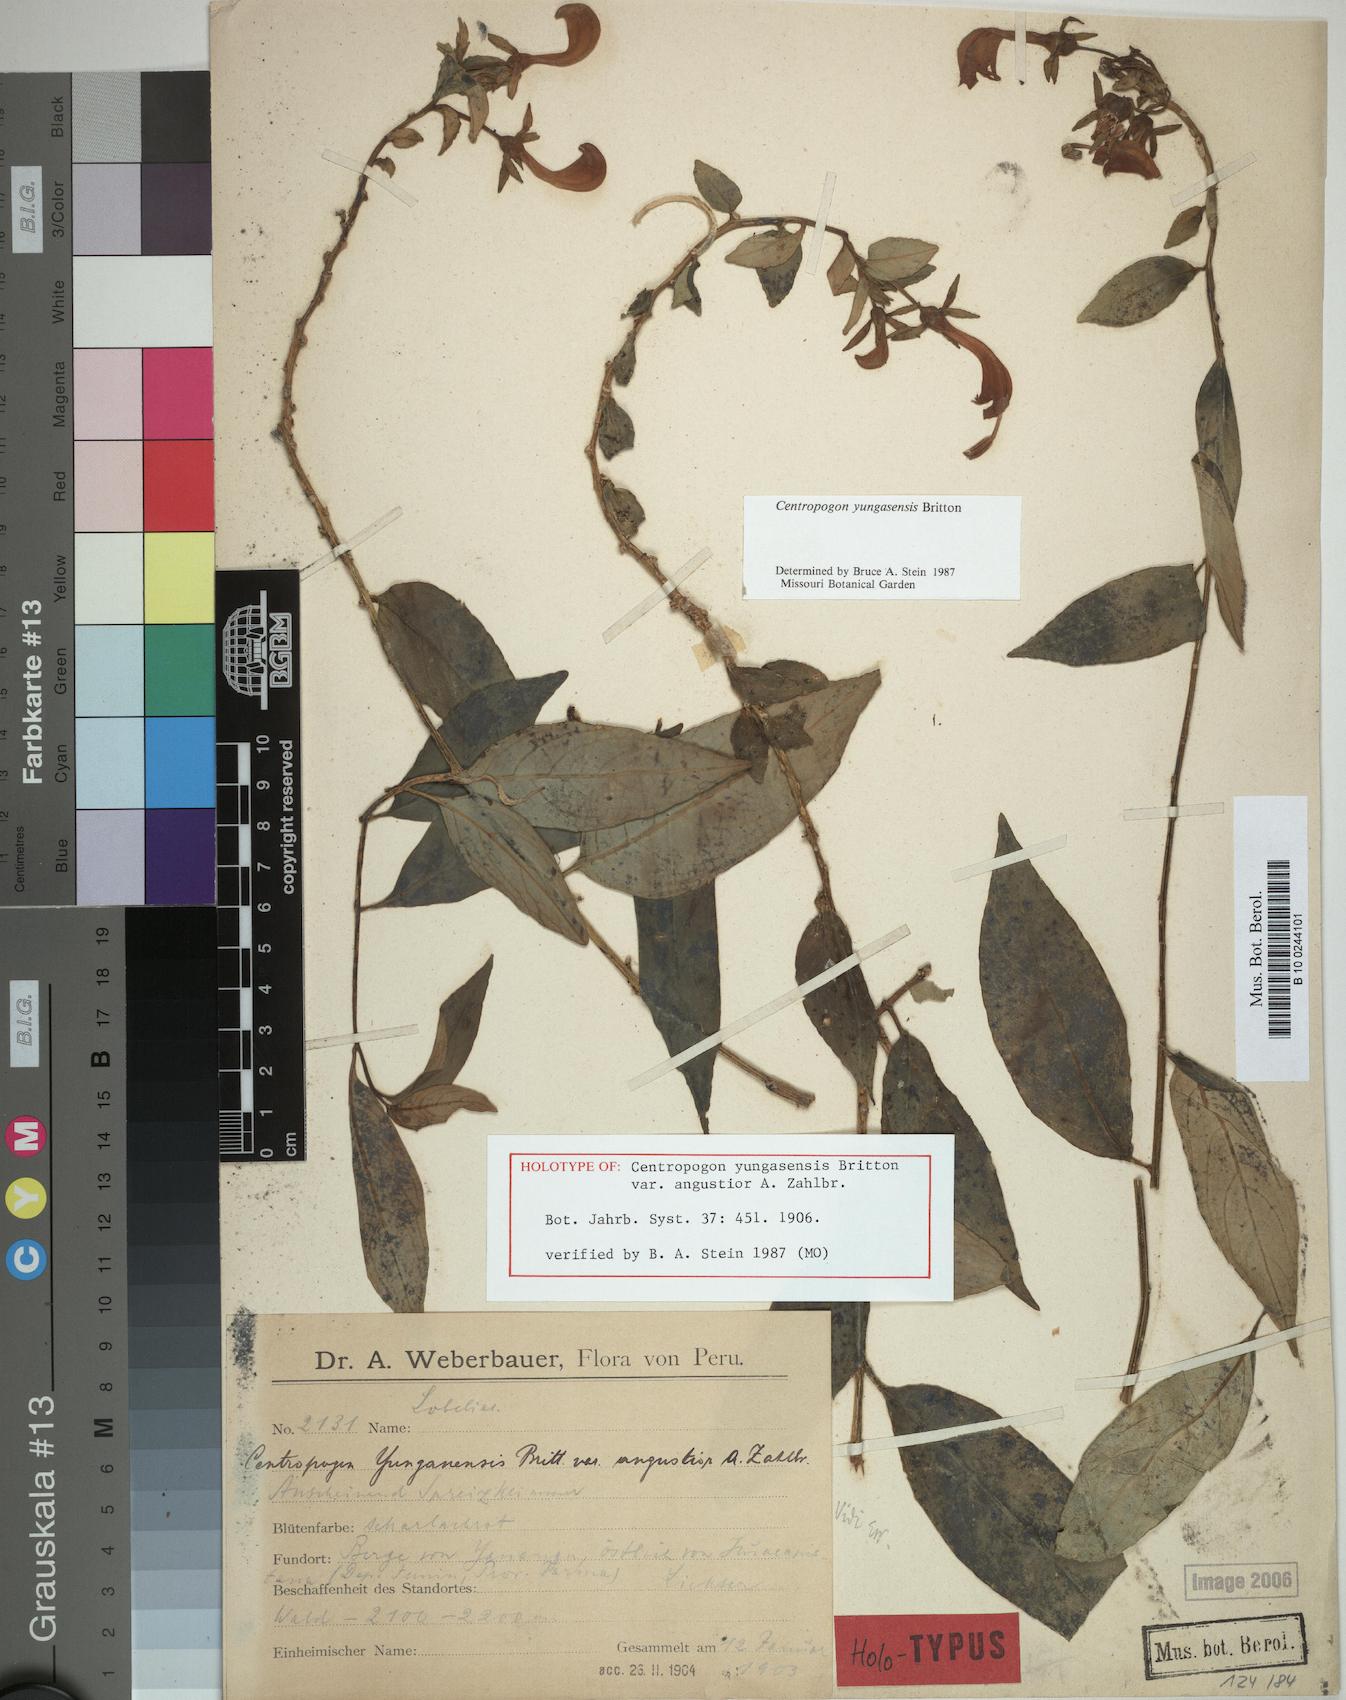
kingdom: Plantae
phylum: Tracheophyta
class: Magnoliopsida
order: Asterales
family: Campanulaceae
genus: Centropogon
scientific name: Centropogon yungasensis
